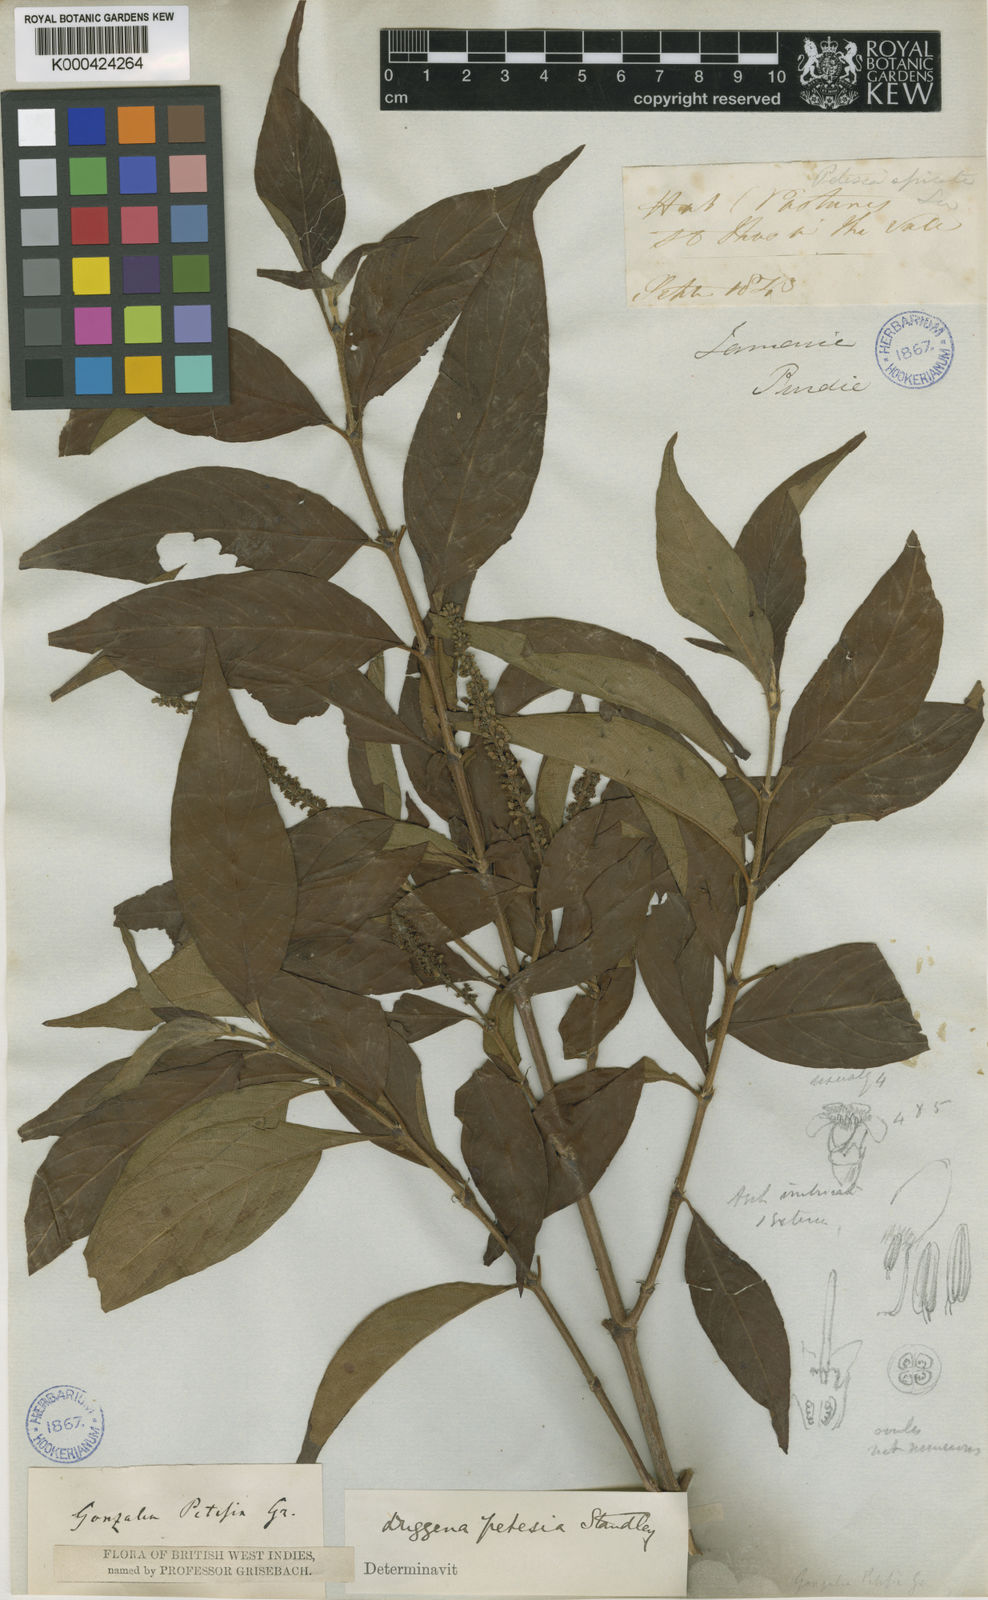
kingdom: Plantae
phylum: Tracheophyta
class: Magnoliopsida
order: Gentianales
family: Rubiaceae
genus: Gonzalagunia
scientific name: Gonzalagunia brachyantha
